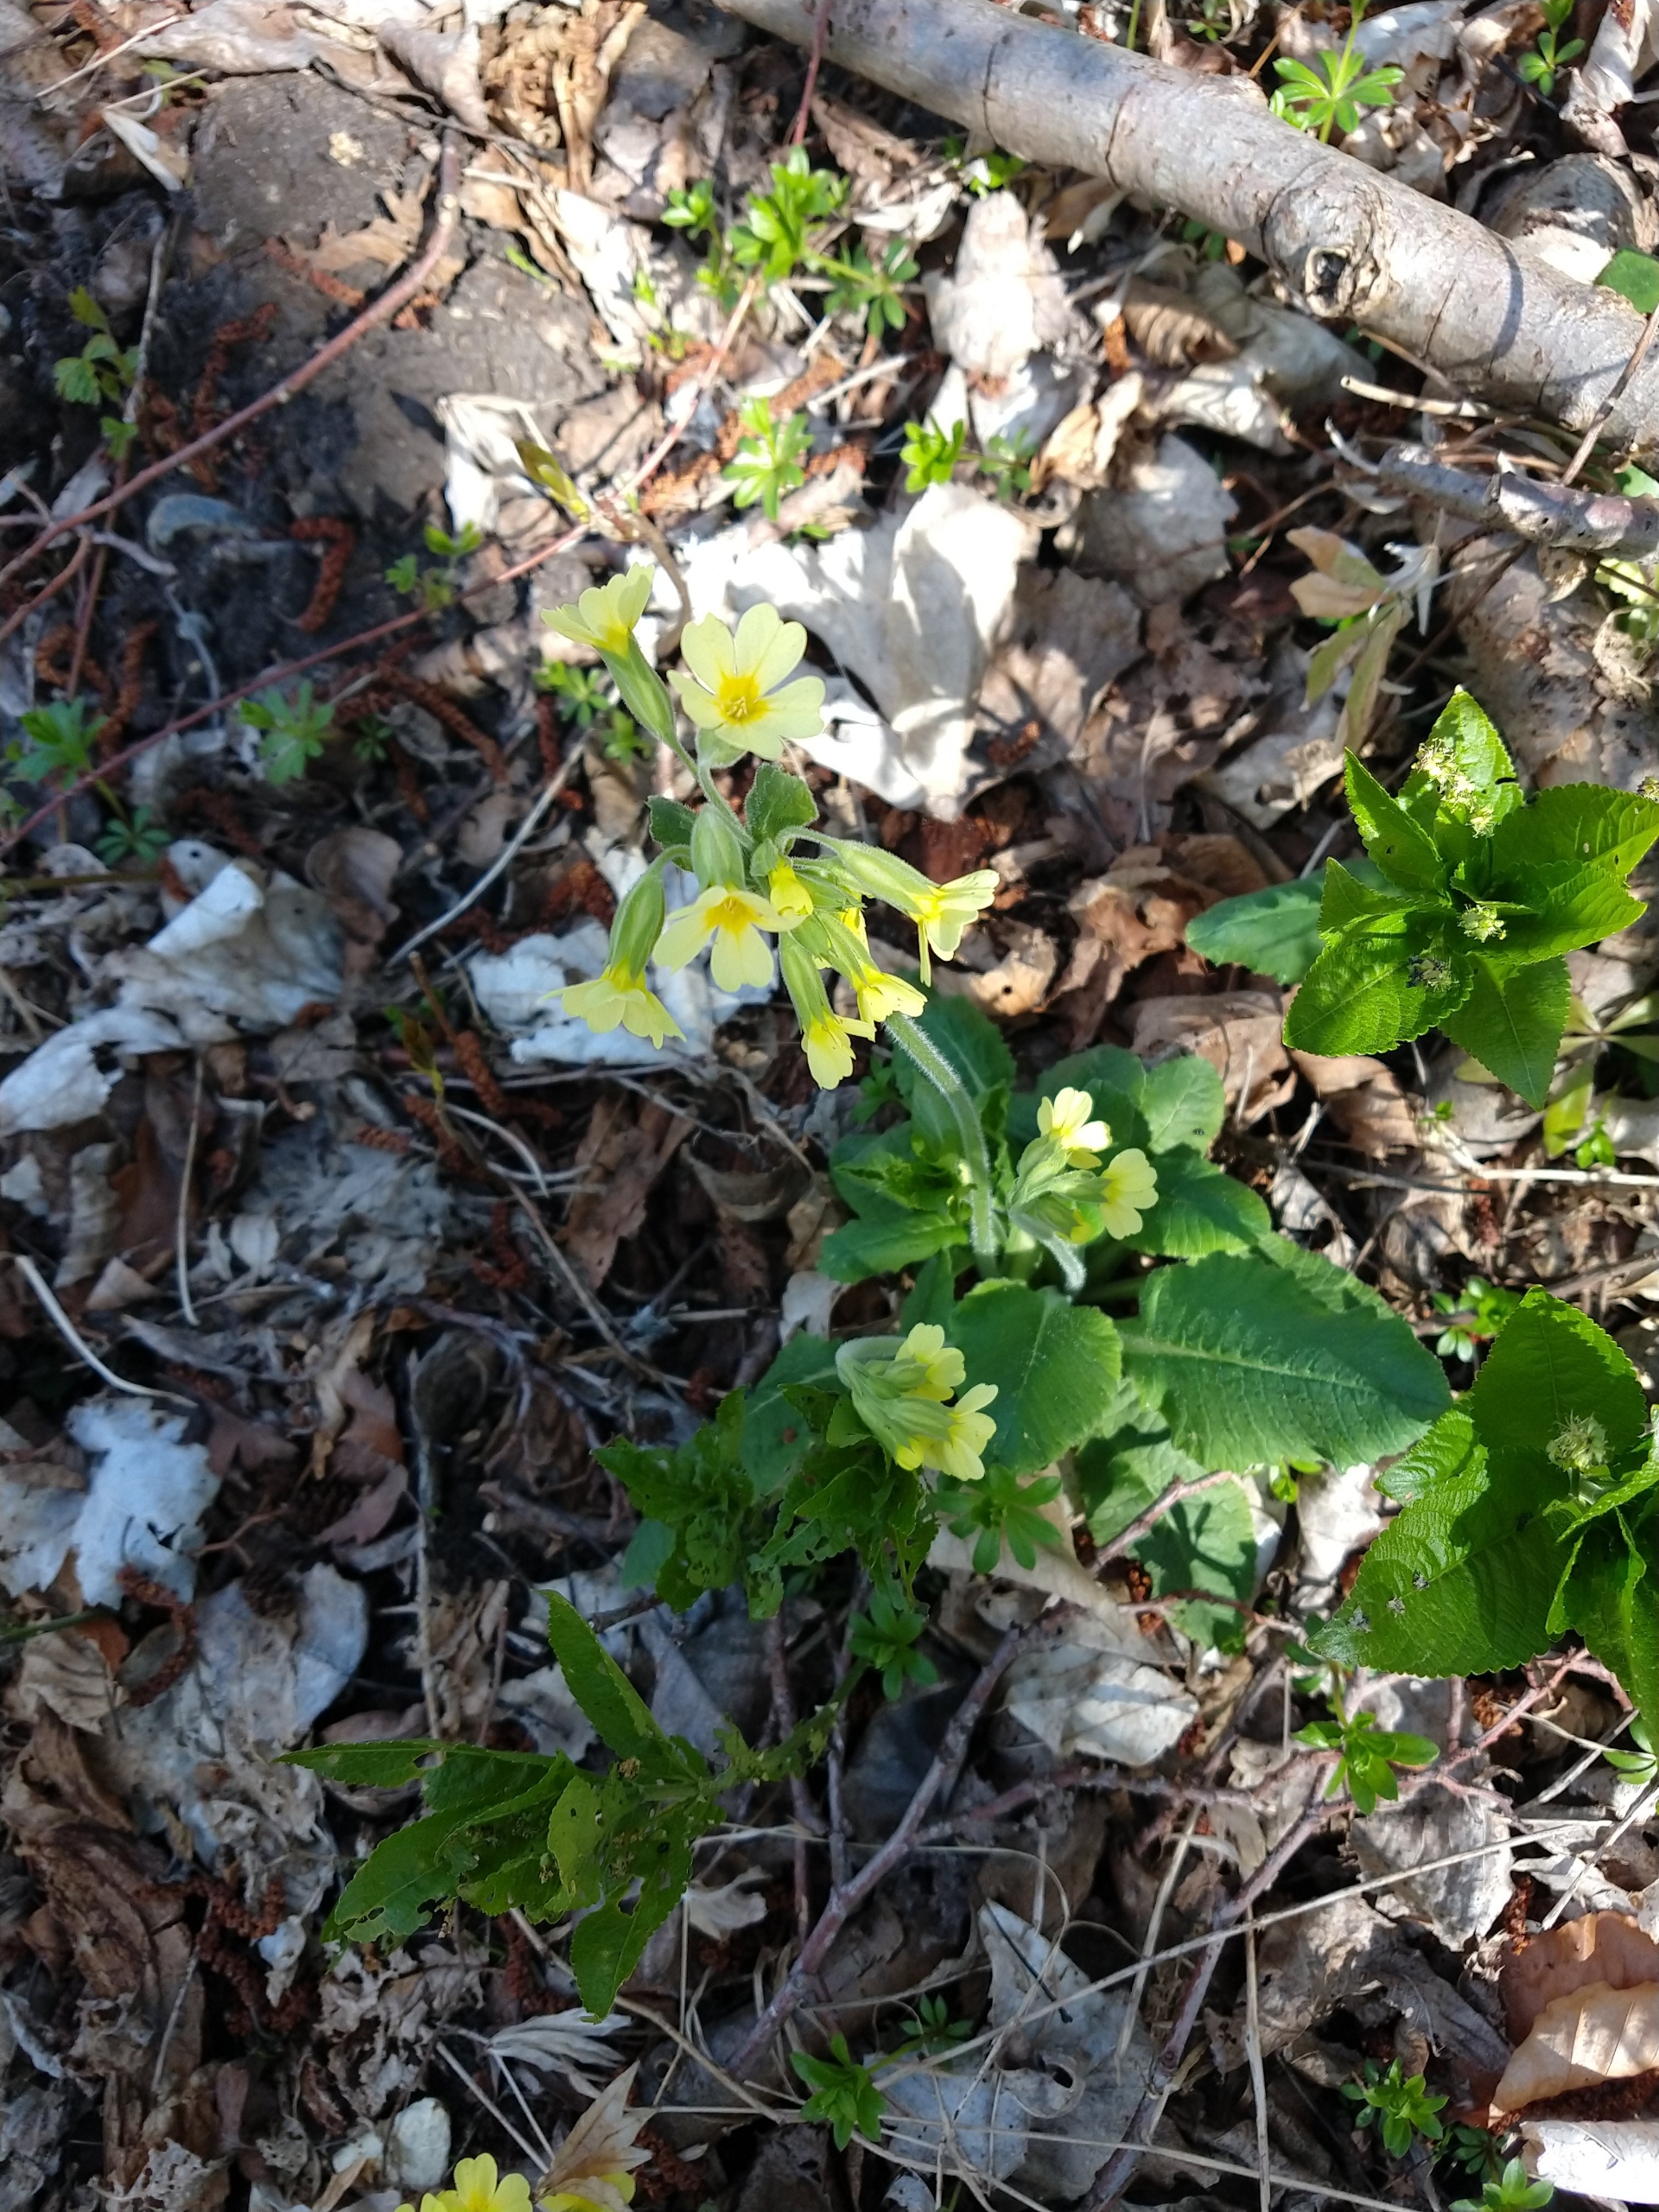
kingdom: Plantae
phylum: Tracheophyta
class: Magnoliopsida
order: Ericales
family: Primulaceae
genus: Primula
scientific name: Primula elatior
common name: Fladkravet kodriver
